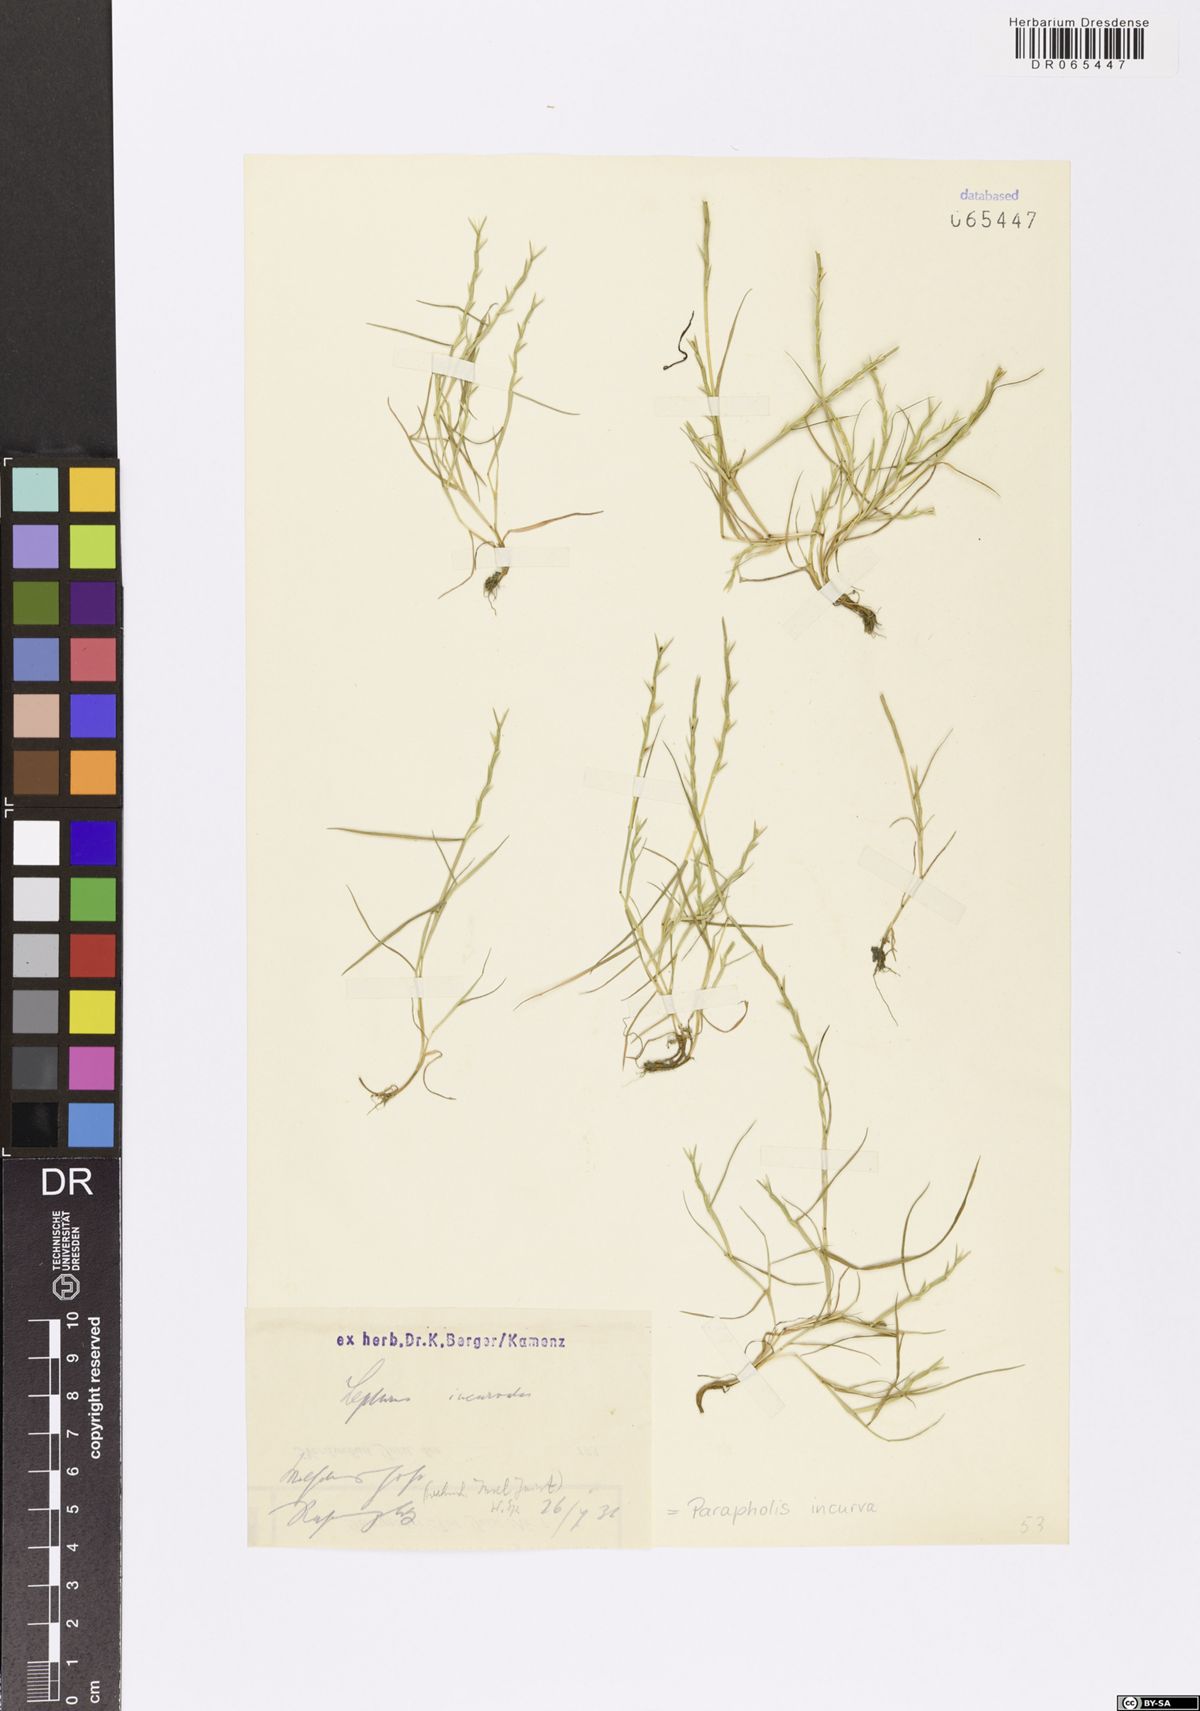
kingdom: Plantae
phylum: Tracheophyta
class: Liliopsida
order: Poales
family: Poaceae
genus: Parapholis
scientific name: Parapholis incurva
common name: Curved sicklegrass
